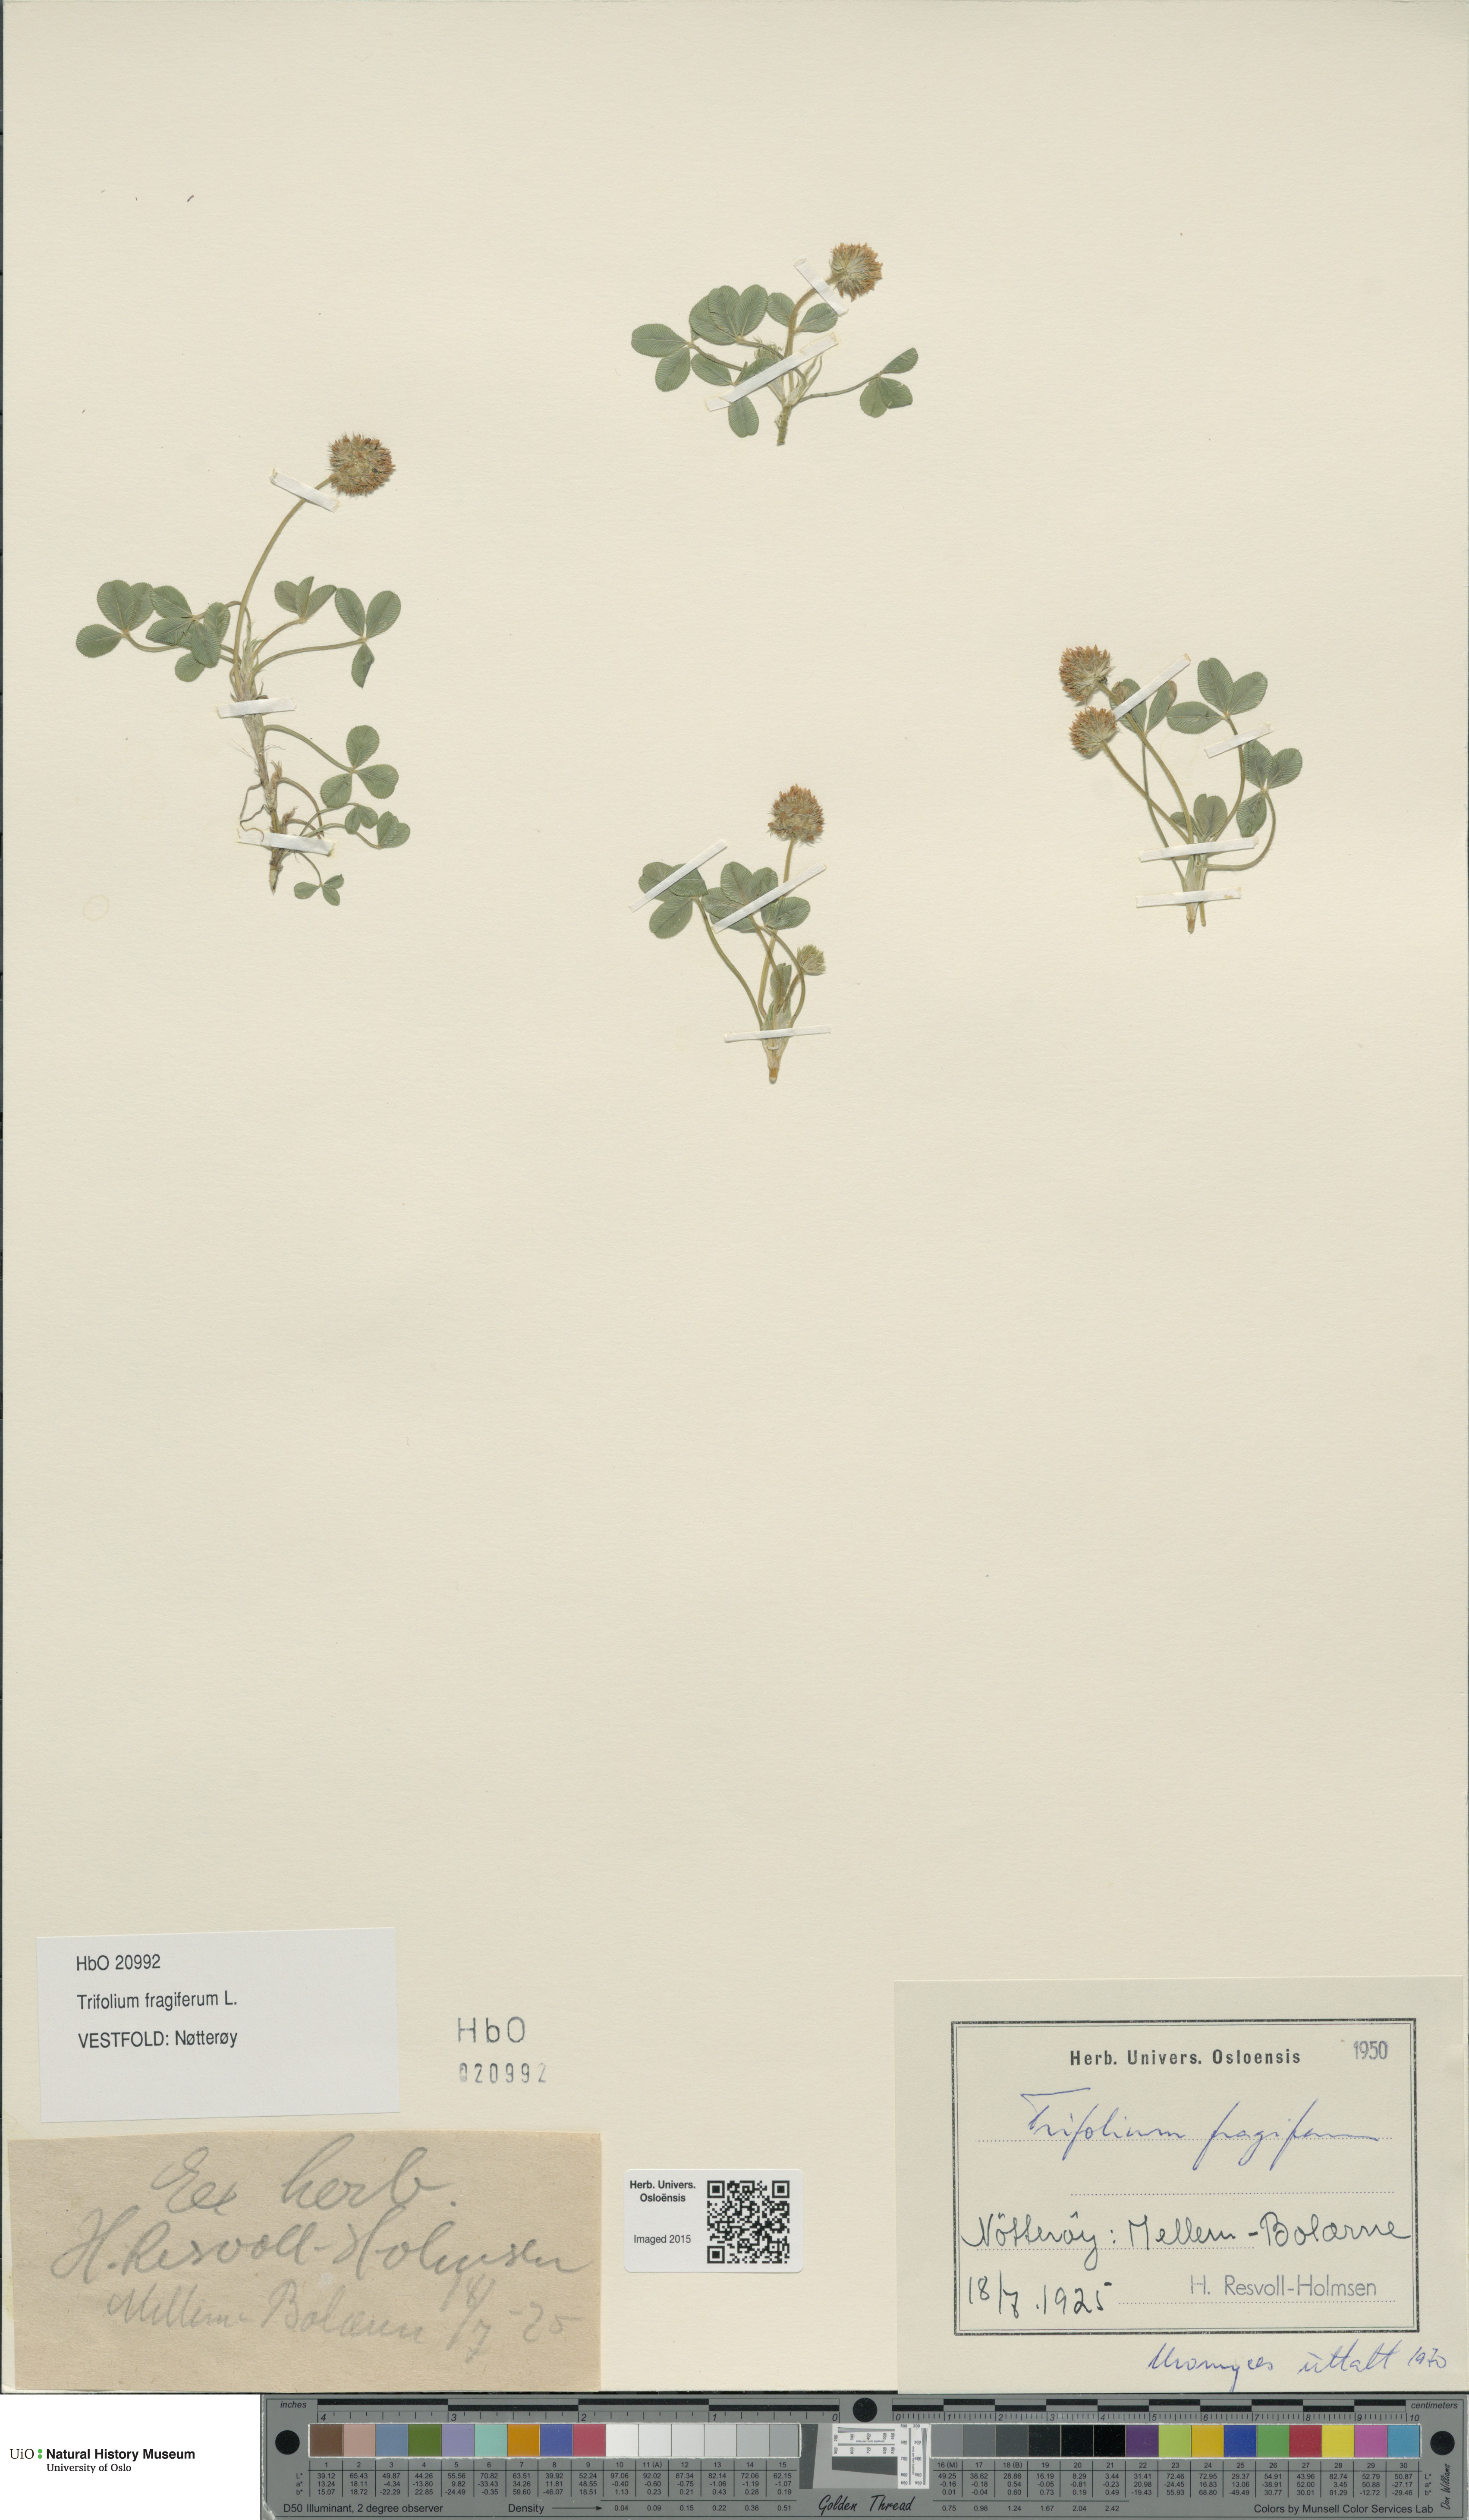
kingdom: Plantae
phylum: Tracheophyta
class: Magnoliopsida
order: Fabales
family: Fabaceae
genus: Trifolium
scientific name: Trifolium fragiferum
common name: Strawberry clover
